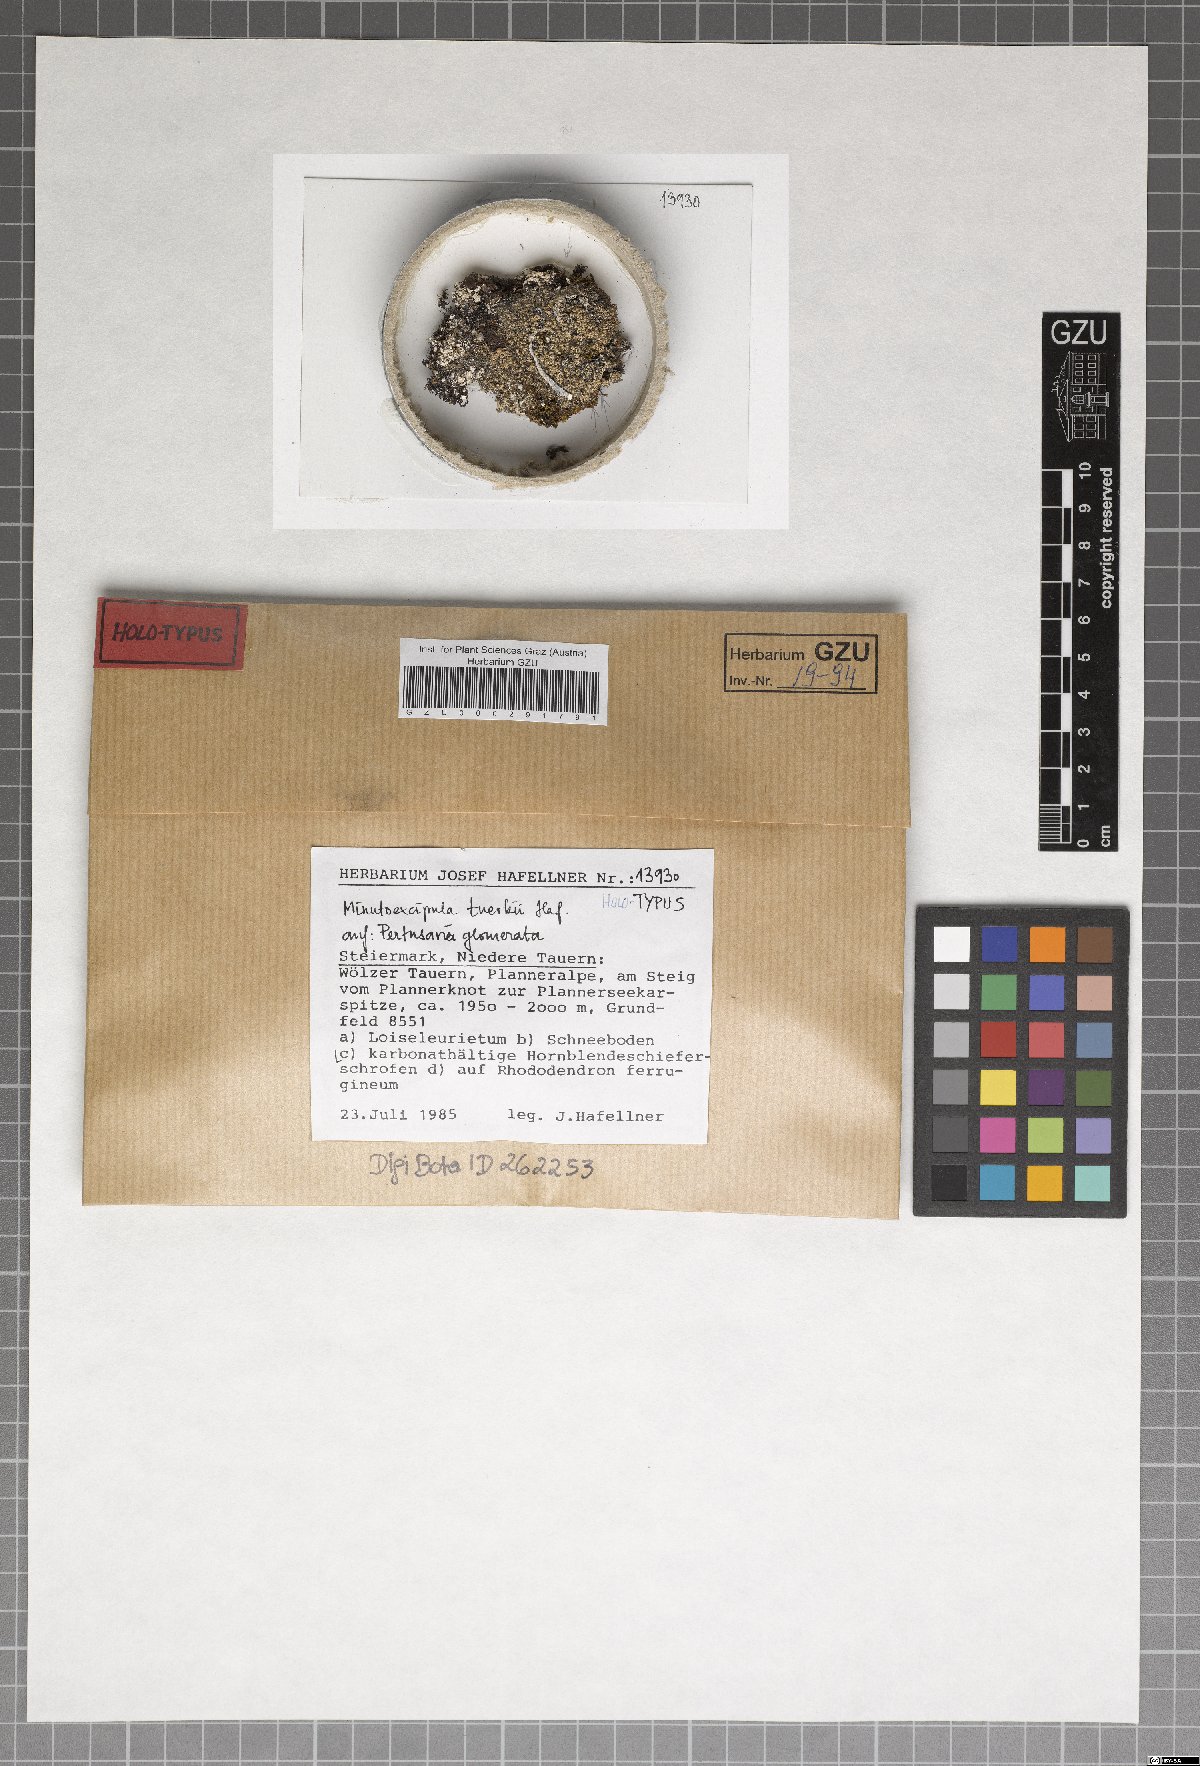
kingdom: Fungi
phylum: Ascomycota
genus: Minutoexcipula
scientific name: Minutoexcipula tuerkii
